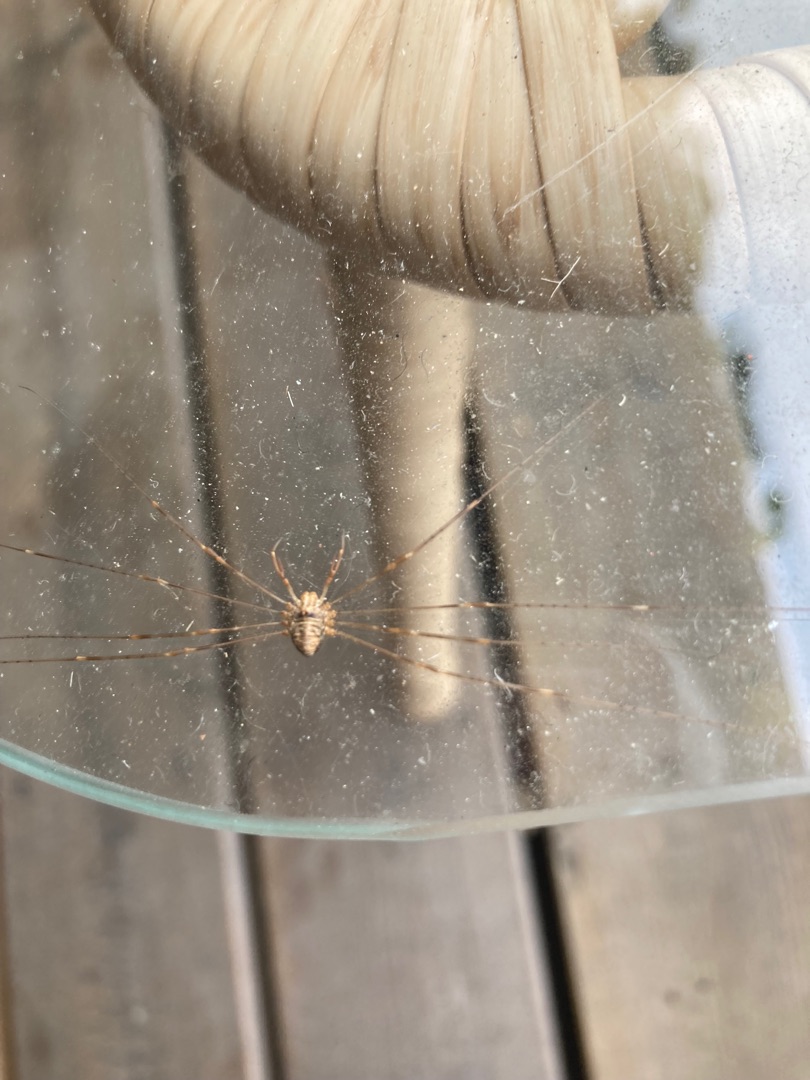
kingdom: Animalia
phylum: Arthropoda
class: Arachnida
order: Opiliones
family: Phalangiidae
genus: Dicranopalpus
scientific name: Dicranopalpus ramosus
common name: Gaffelmejer
